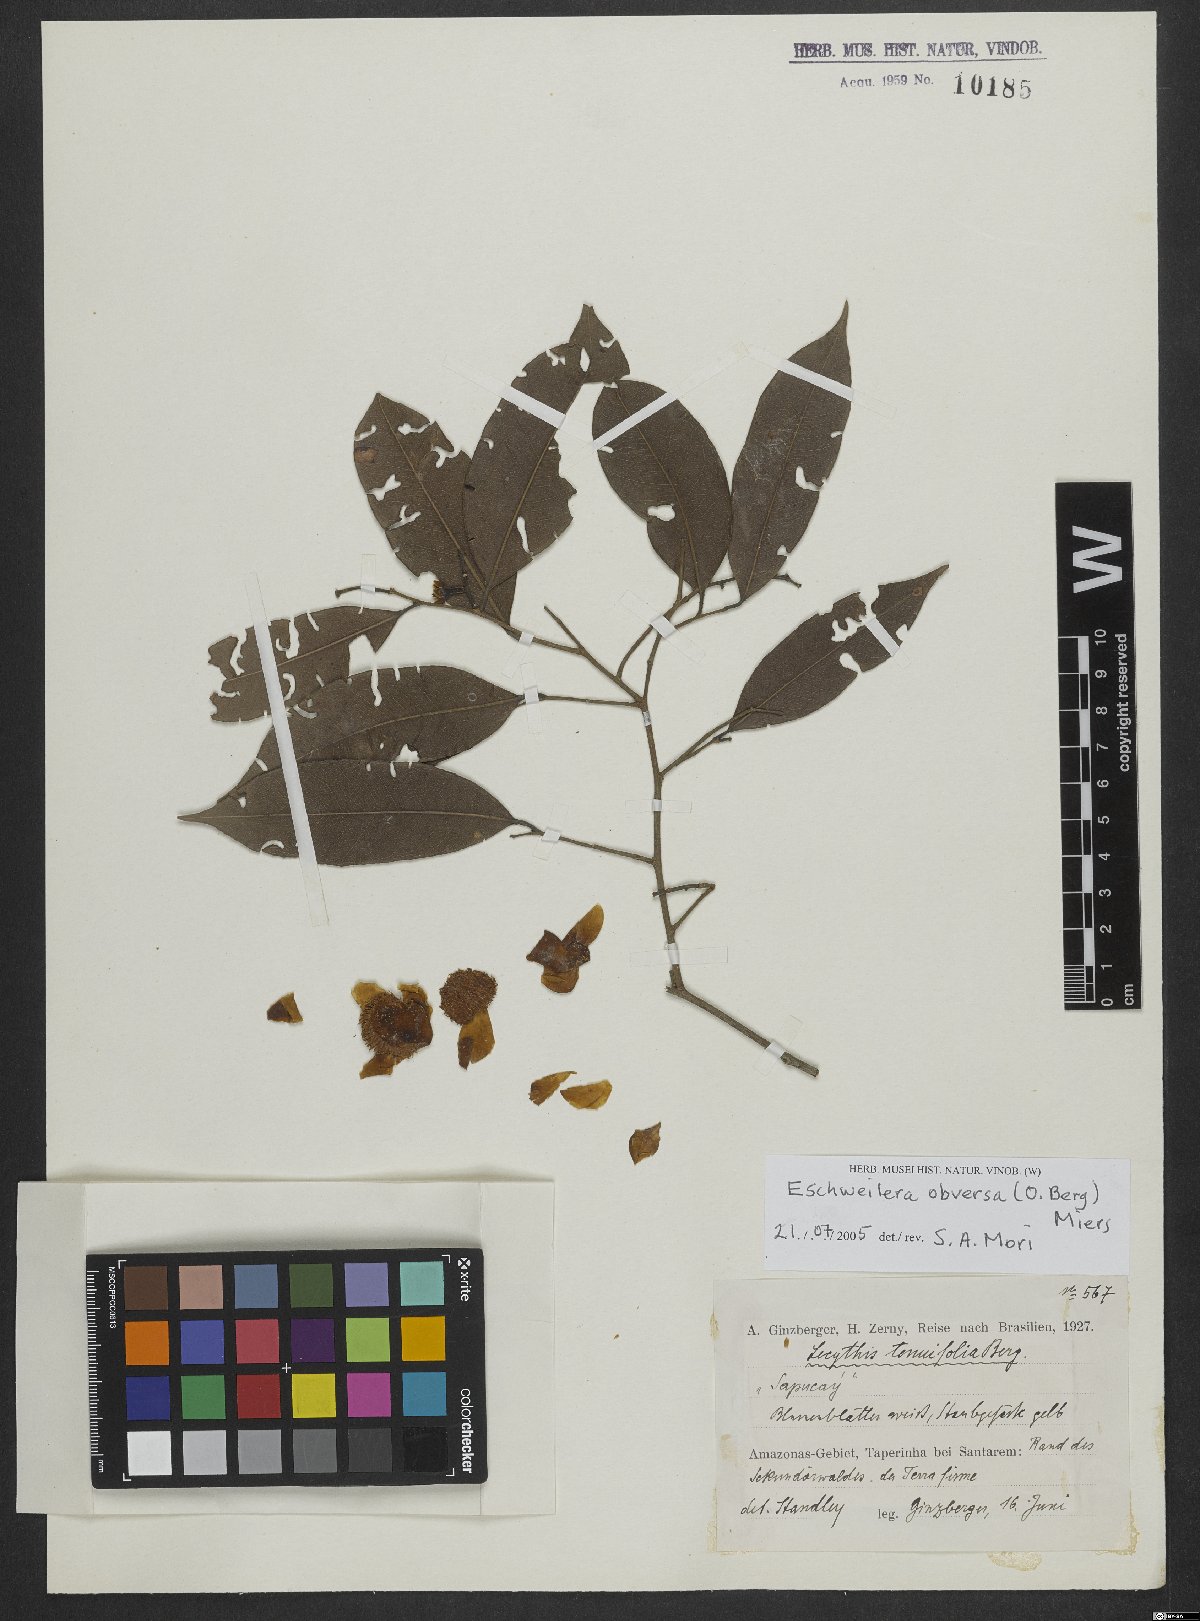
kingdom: Plantae
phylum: Tracheophyta
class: Magnoliopsida
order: Ericales
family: Lecythidaceae
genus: Eschweilera
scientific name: Eschweilera obversa
